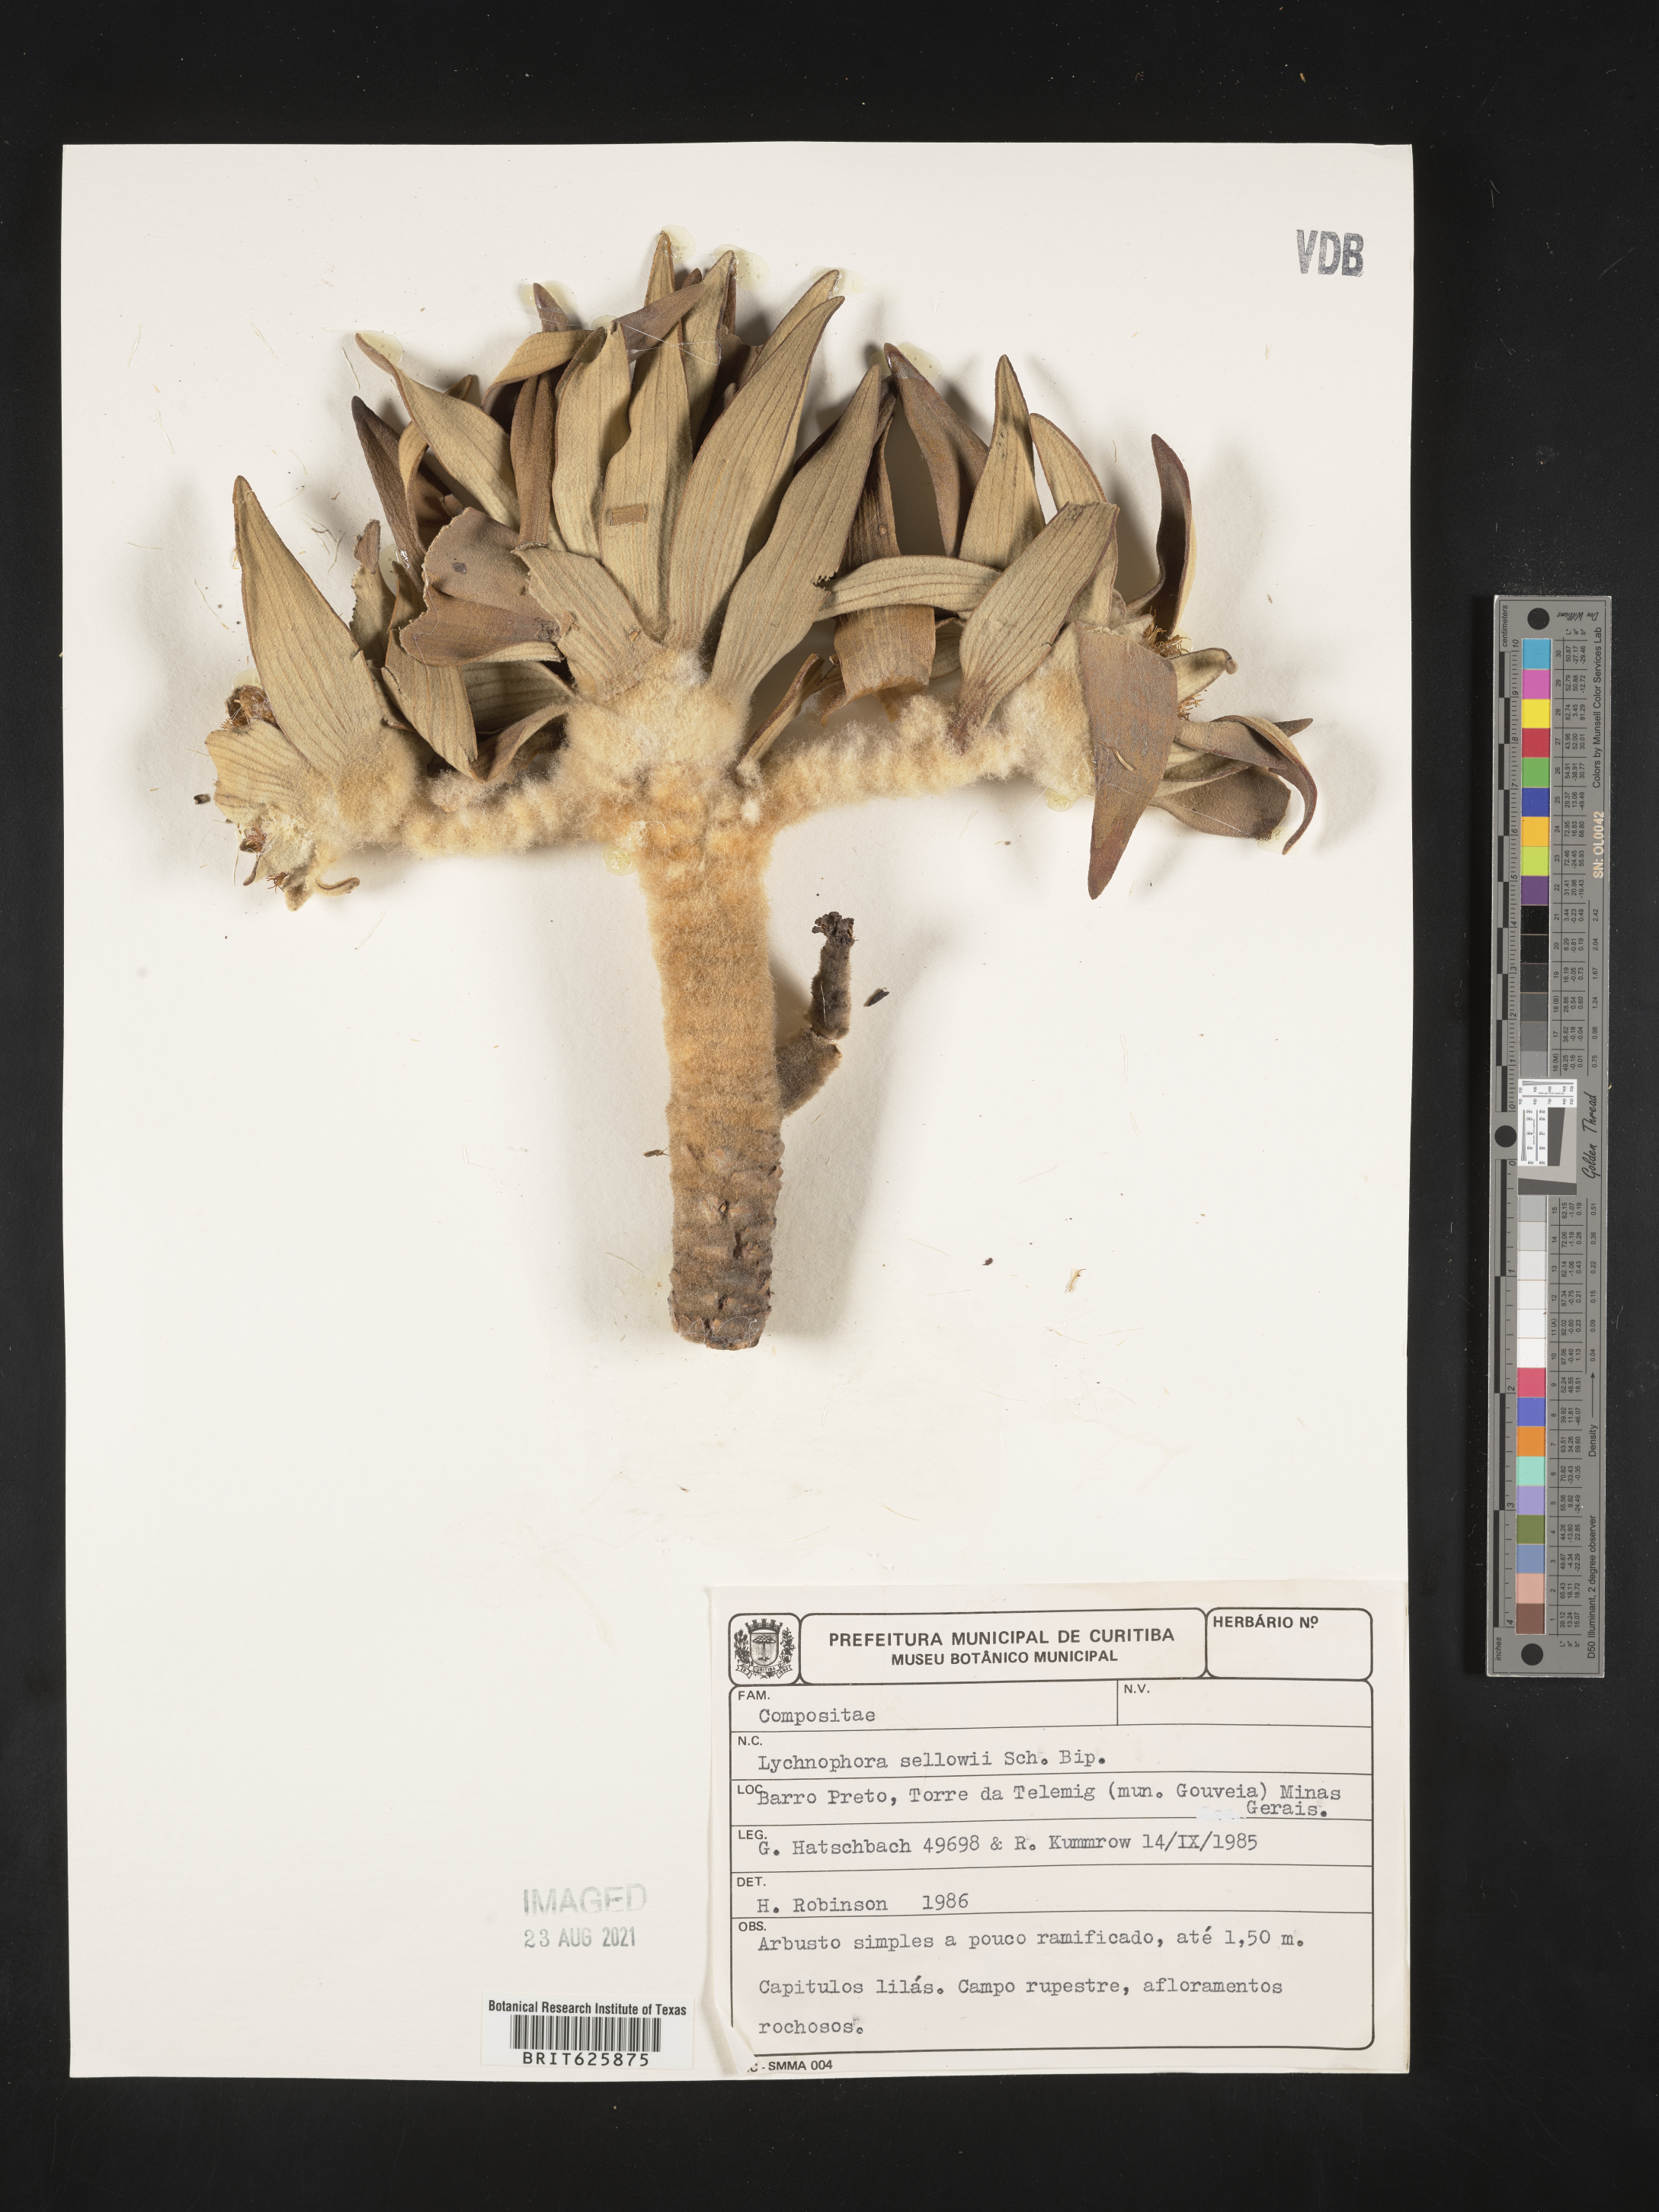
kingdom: Plantae
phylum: Tracheophyta
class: Magnoliopsida
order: Asterales
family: Asteraceae
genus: Lychnophora
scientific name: Lychnophora sellowii
